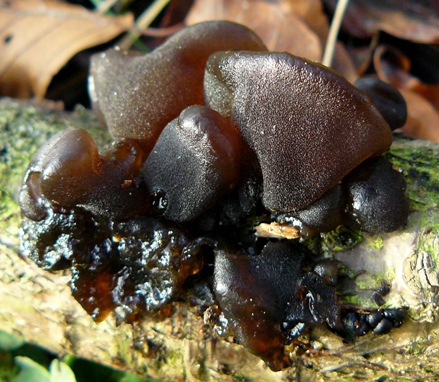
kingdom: Fungi
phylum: Basidiomycota
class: Agaricomycetes
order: Auriculariales
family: Auriculariaceae
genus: Exidia
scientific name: Exidia glandulosa
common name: ege-bævretop
